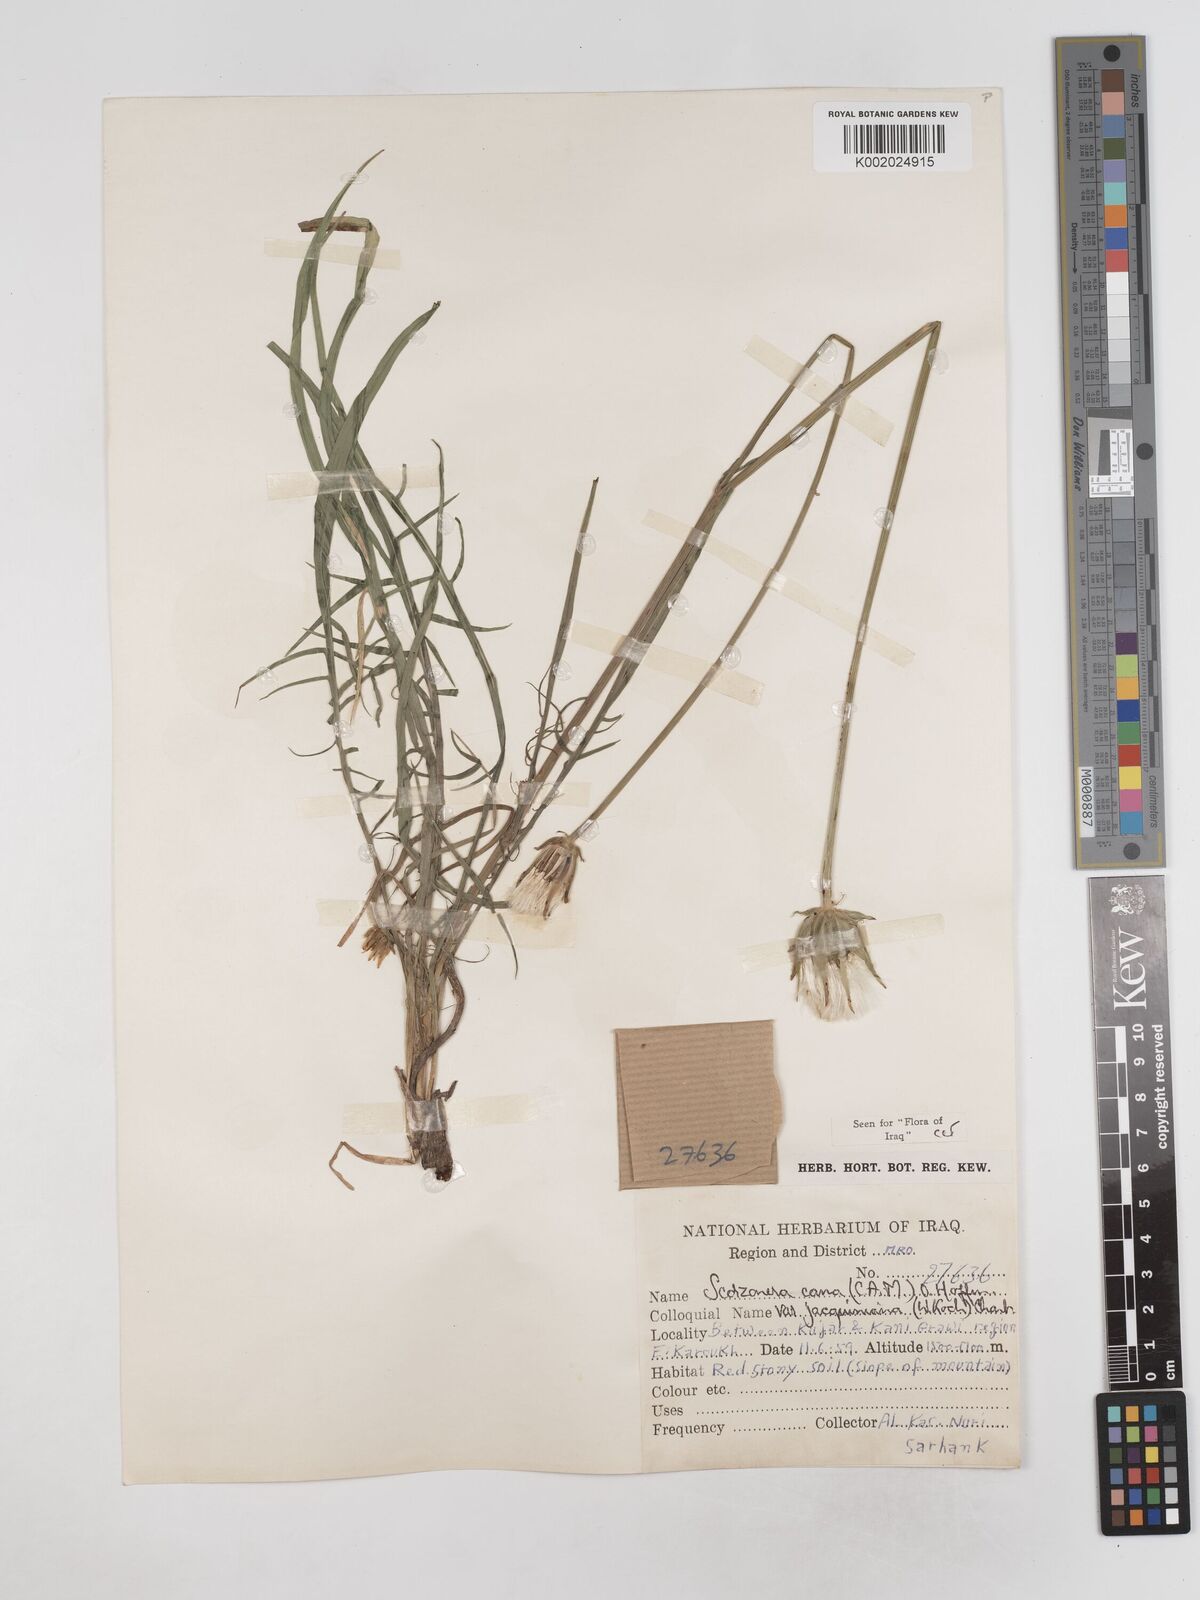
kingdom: Plantae
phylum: Tracheophyta
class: Magnoliopsida
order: Asterales
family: Asteraceae
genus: Scorzonera
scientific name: Scorzonera cana
